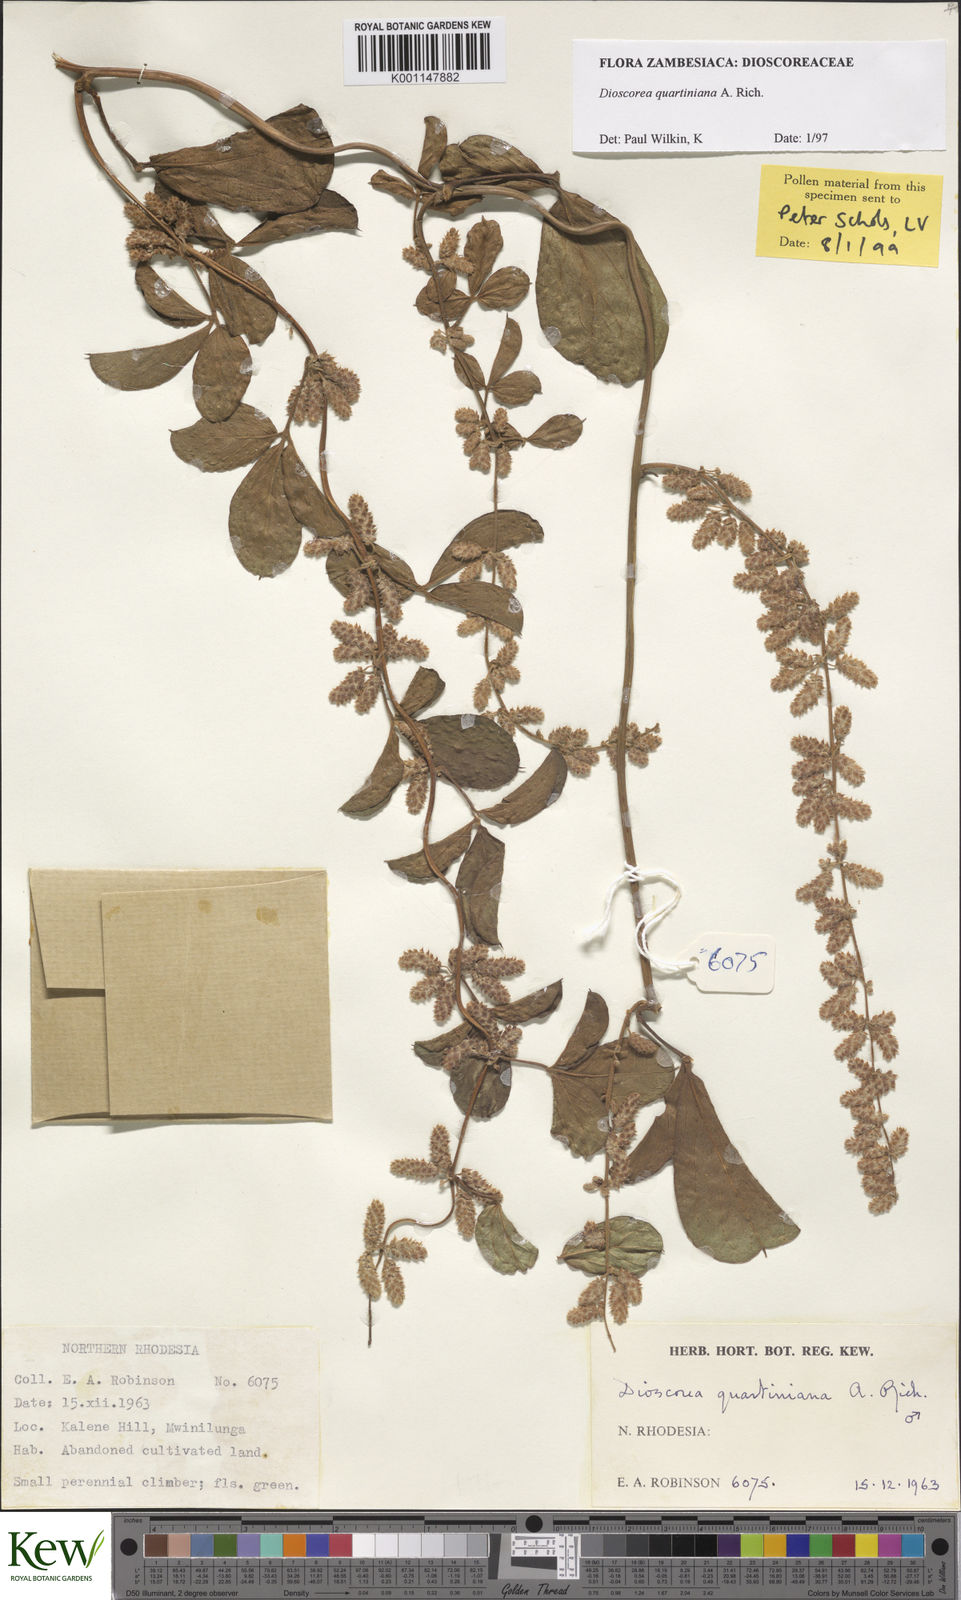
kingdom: Plantae
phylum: Tracheophyta
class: Liliopsida
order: Dioscoreales
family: Dioscoreaceae
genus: Dioscorea
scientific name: Dioscorea quartiniana
